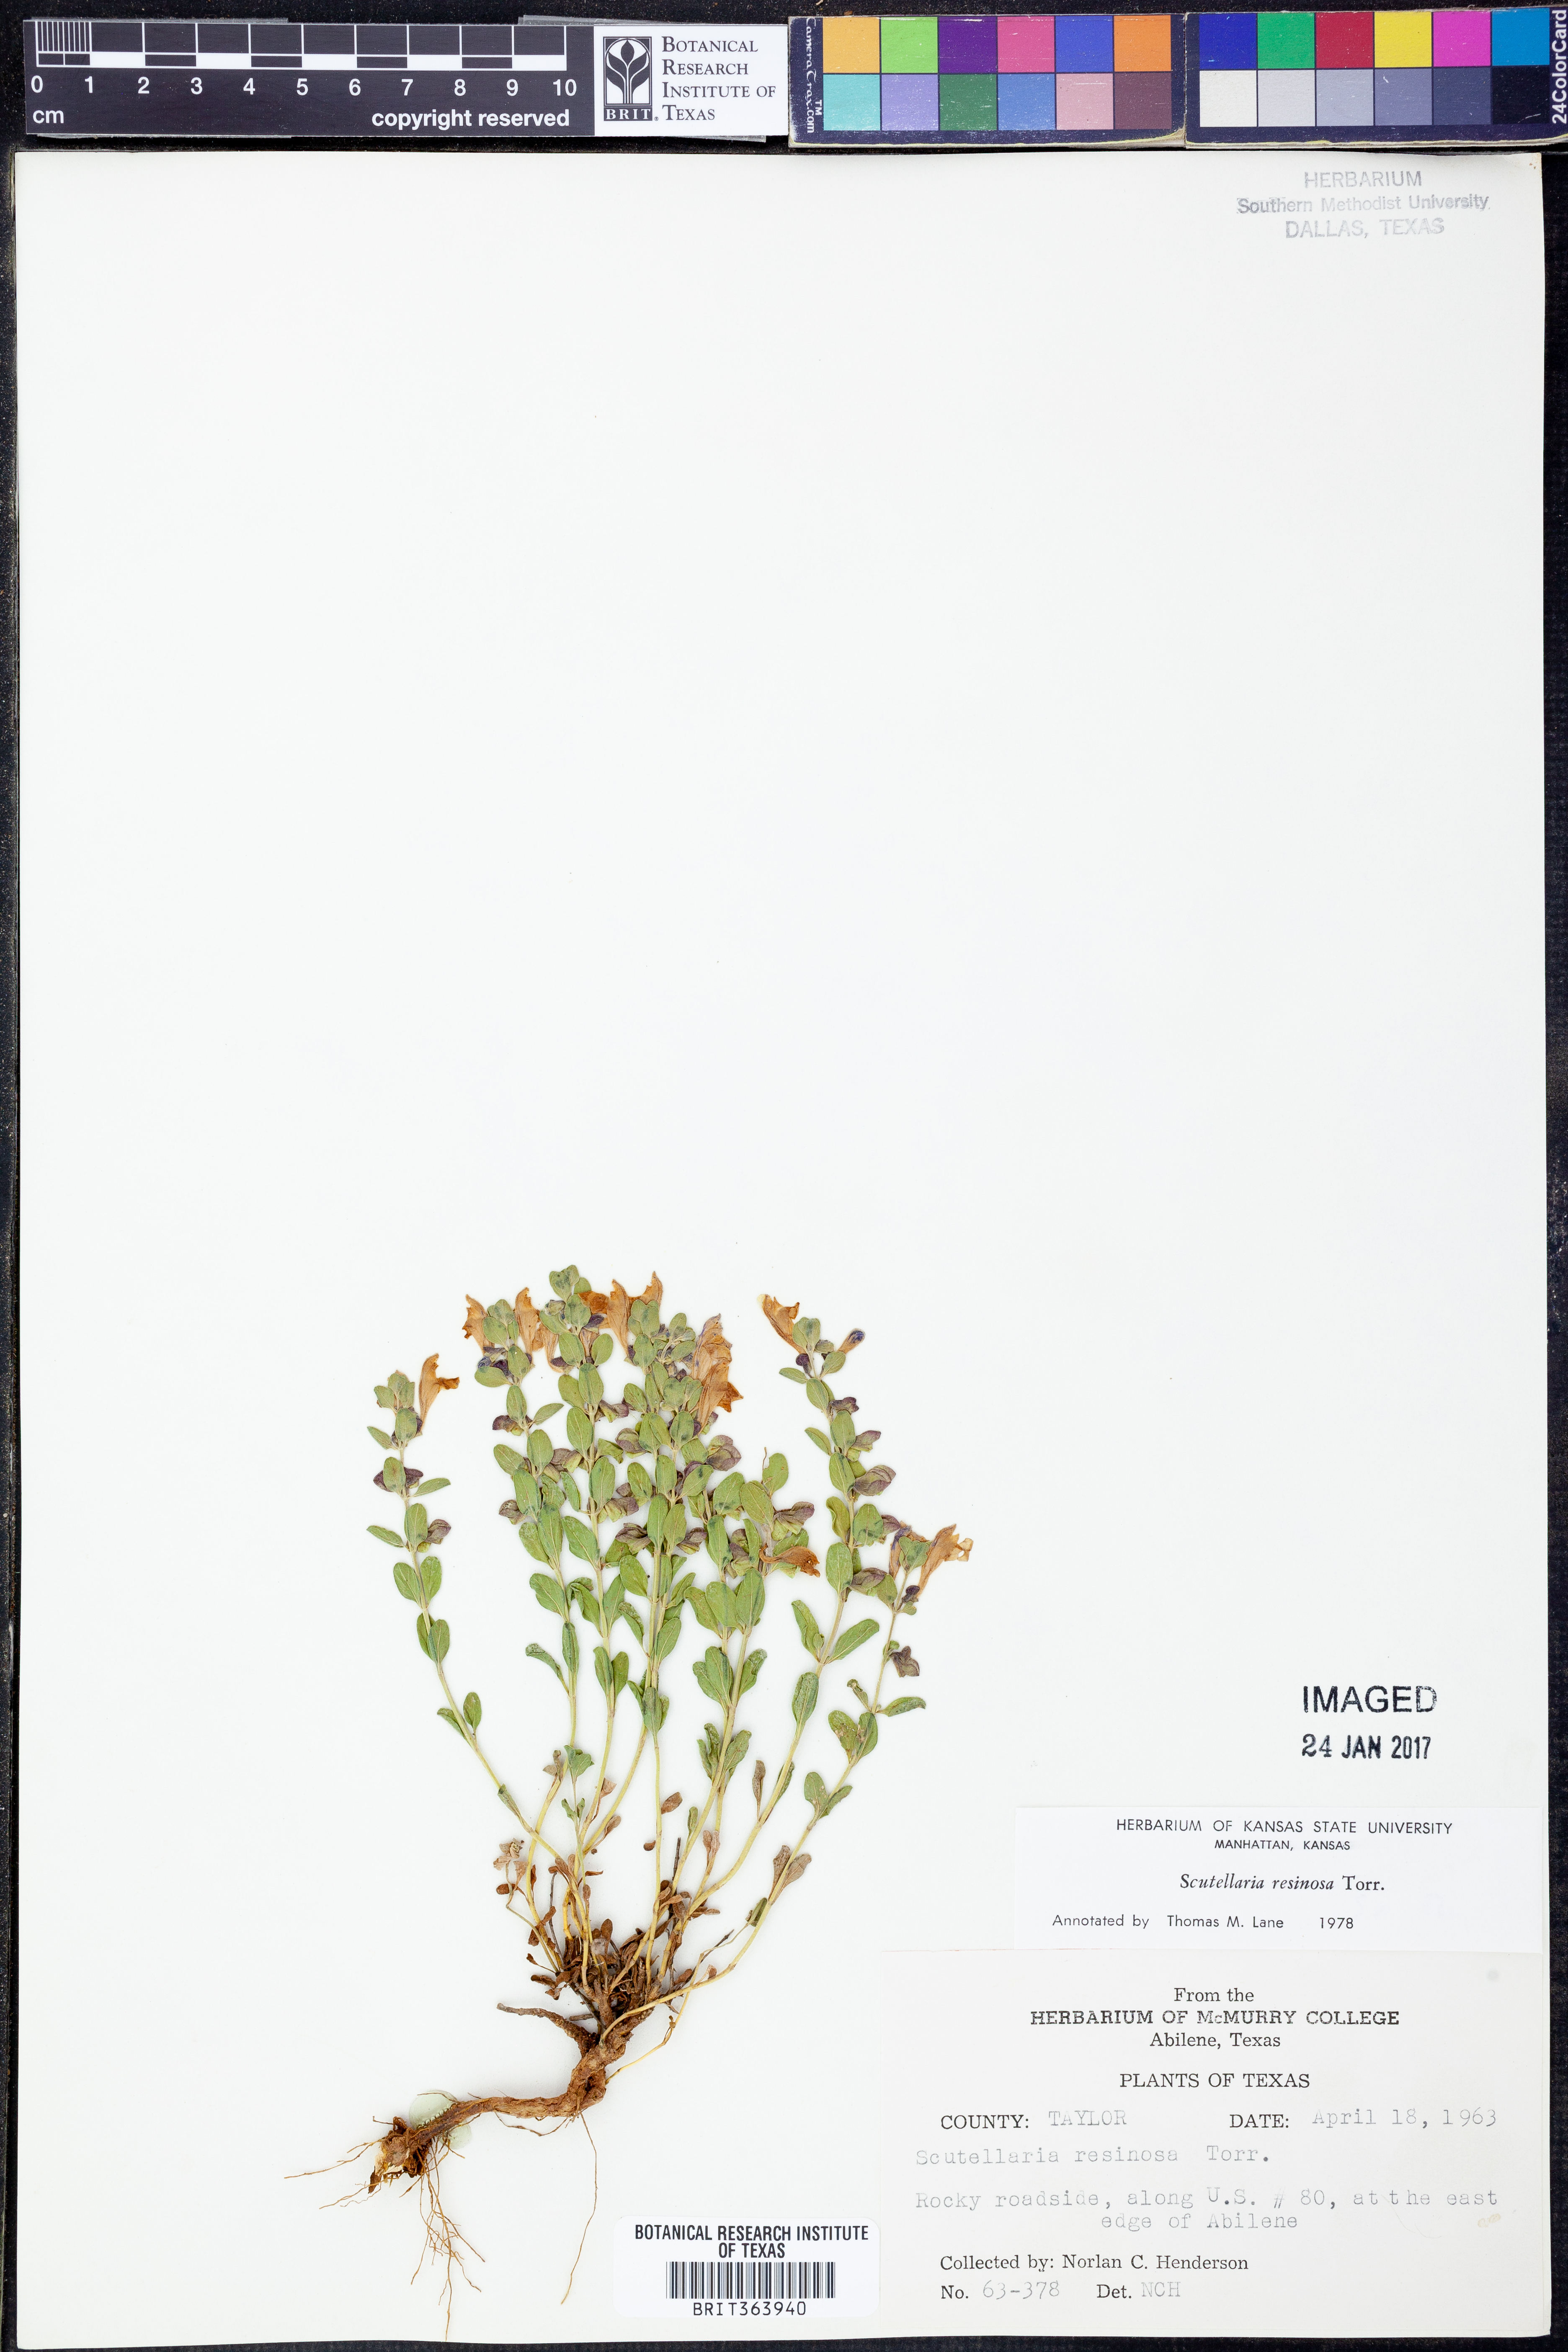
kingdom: Plantae
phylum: Tracheophyta
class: Magnoliopsida
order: Lamiales
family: Lamiaceae
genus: Scutellaria
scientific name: Scutellaria resinosa
